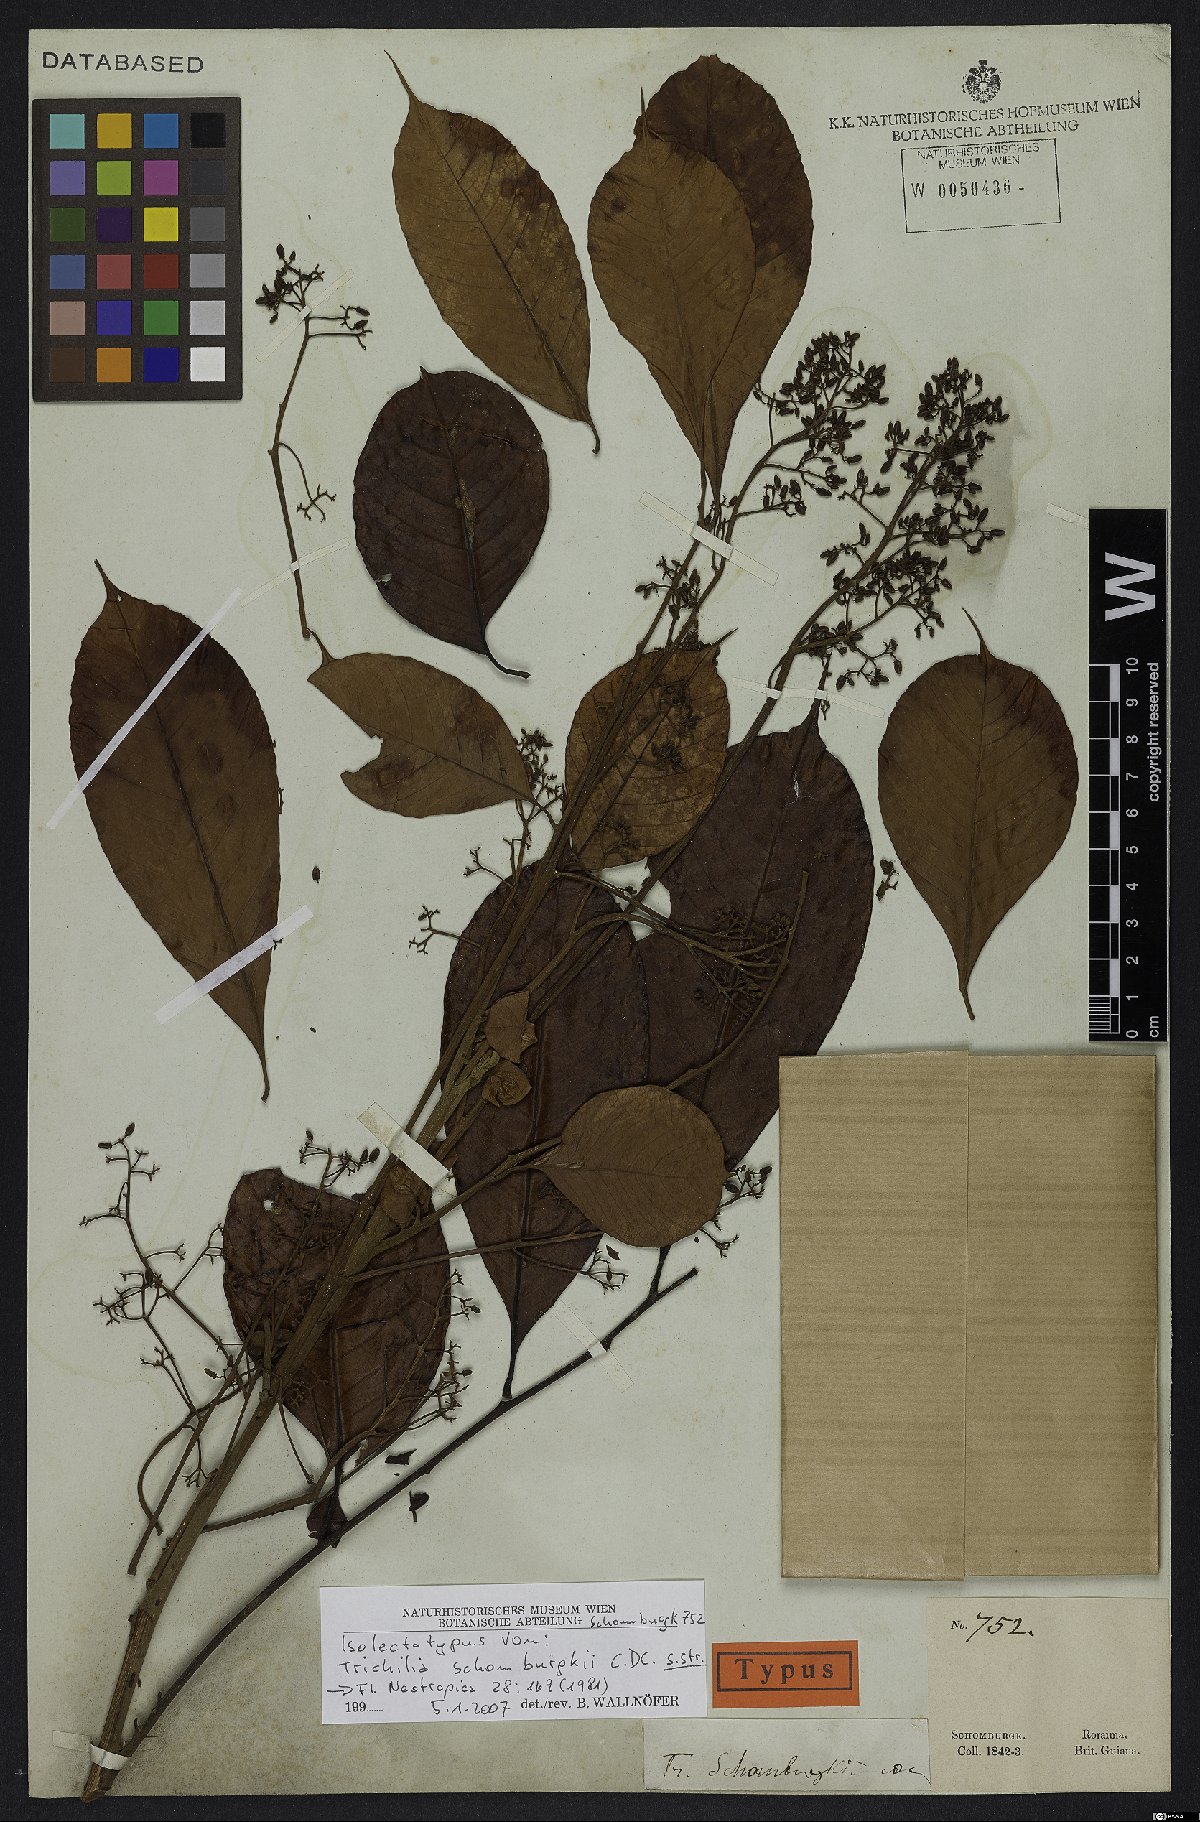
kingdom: Plantae
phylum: Tracheophyta
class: Magnoliopsida
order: Sapindales
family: Meliaceae
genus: Trichilia
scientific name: Trichilia schomburgkii
